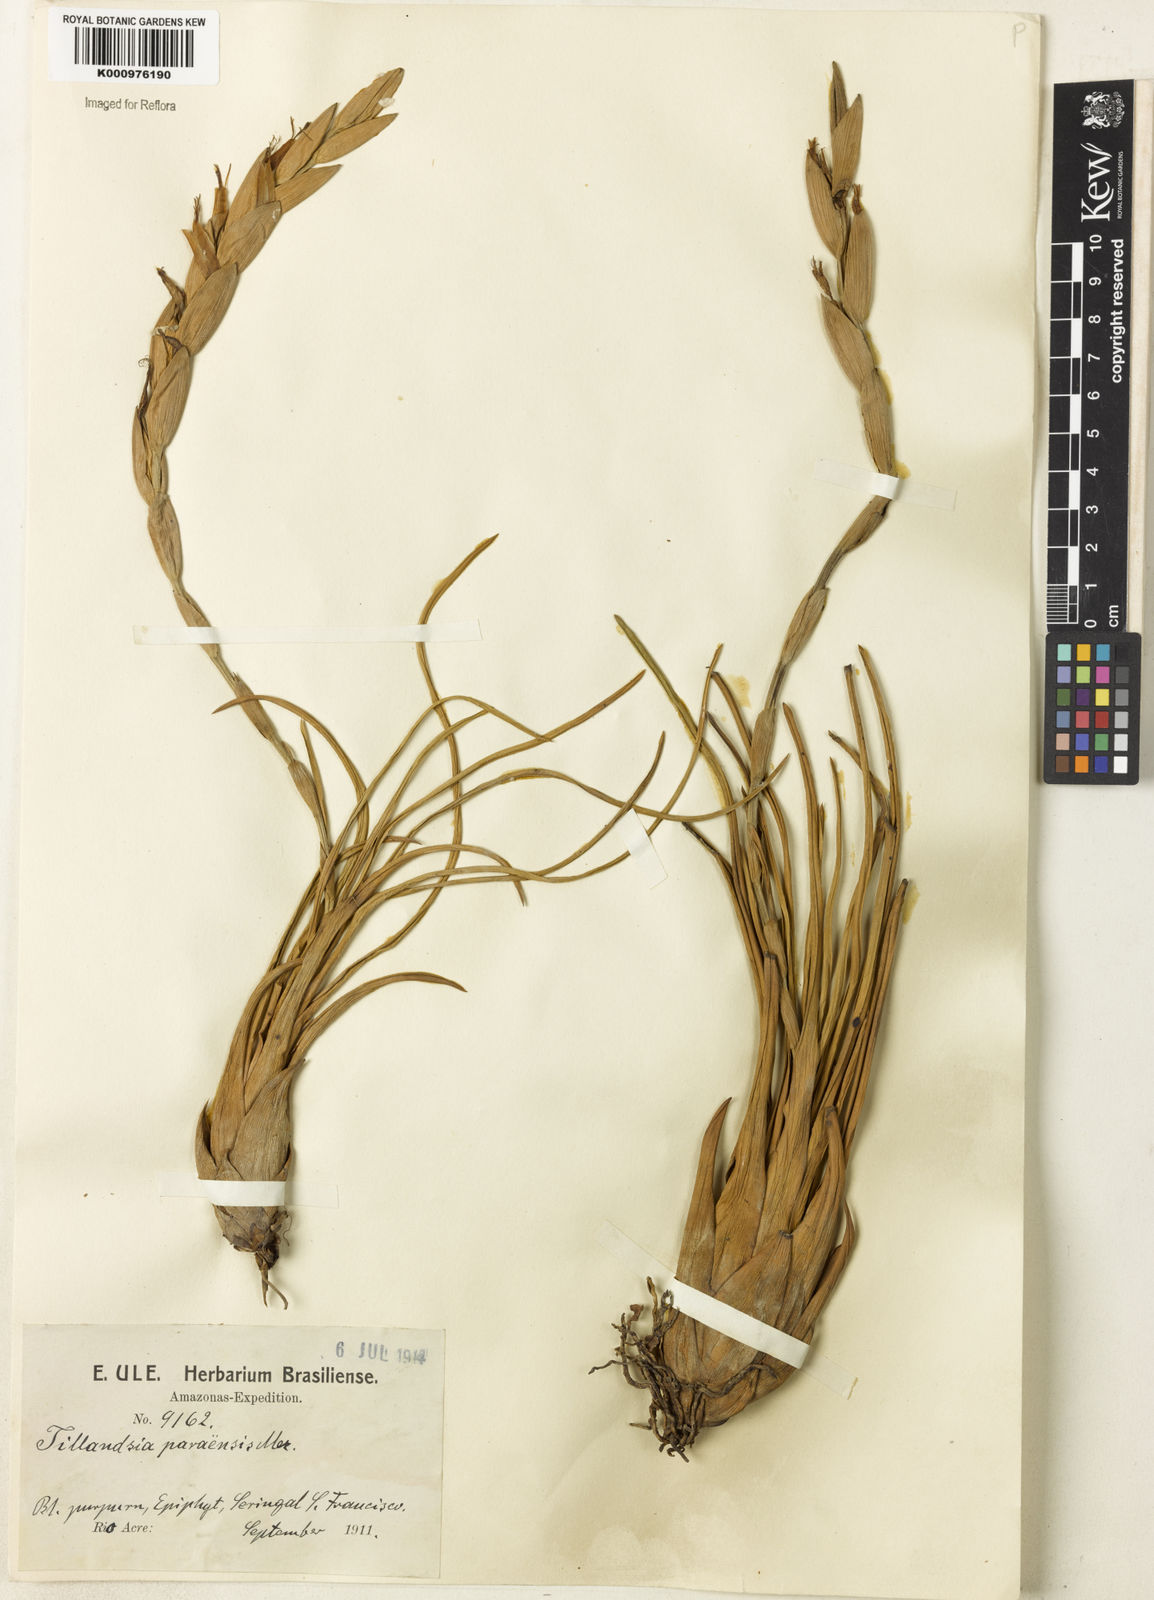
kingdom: Plantae
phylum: Tracheophyta
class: Liliopsida
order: Poales
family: Bromeliaceae
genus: Tillandsia
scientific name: Tillandsia paraensis
